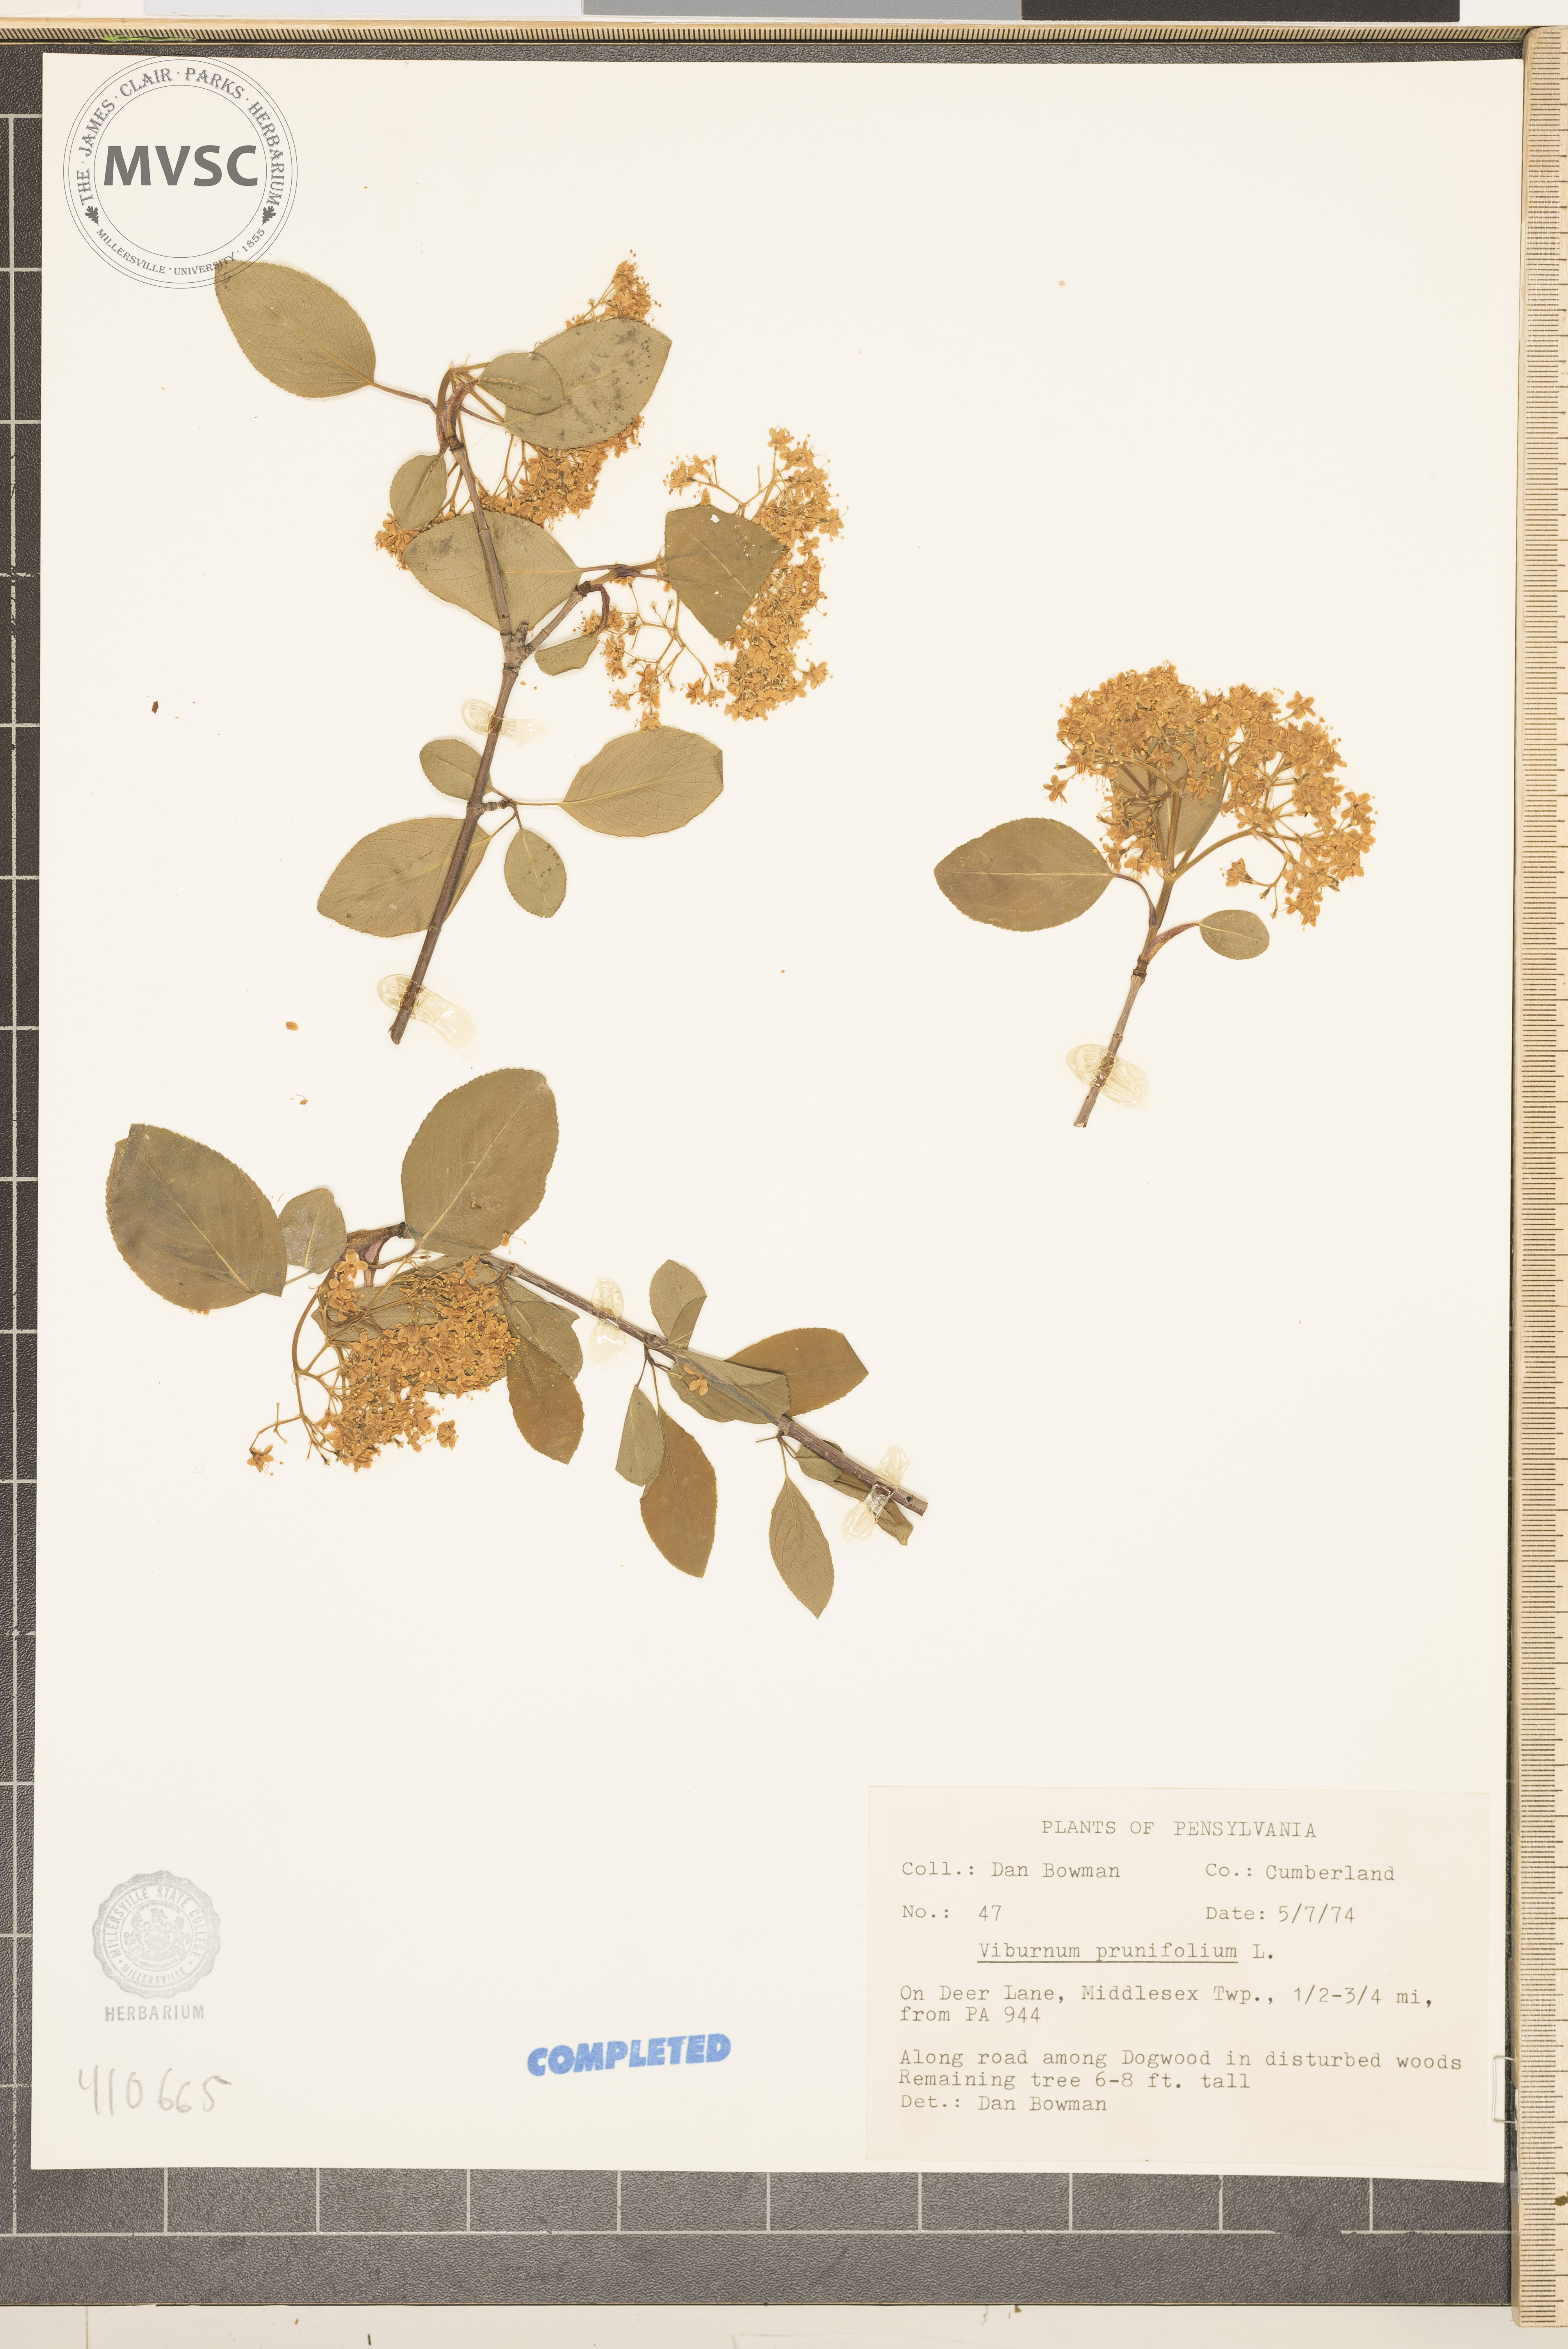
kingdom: Plantae
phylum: Tracheophyta
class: Magnoliopsida
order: Dipsacales
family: Viburnaceae
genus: Viburnum
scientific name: Viburnum prunifolium
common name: blackhaw
